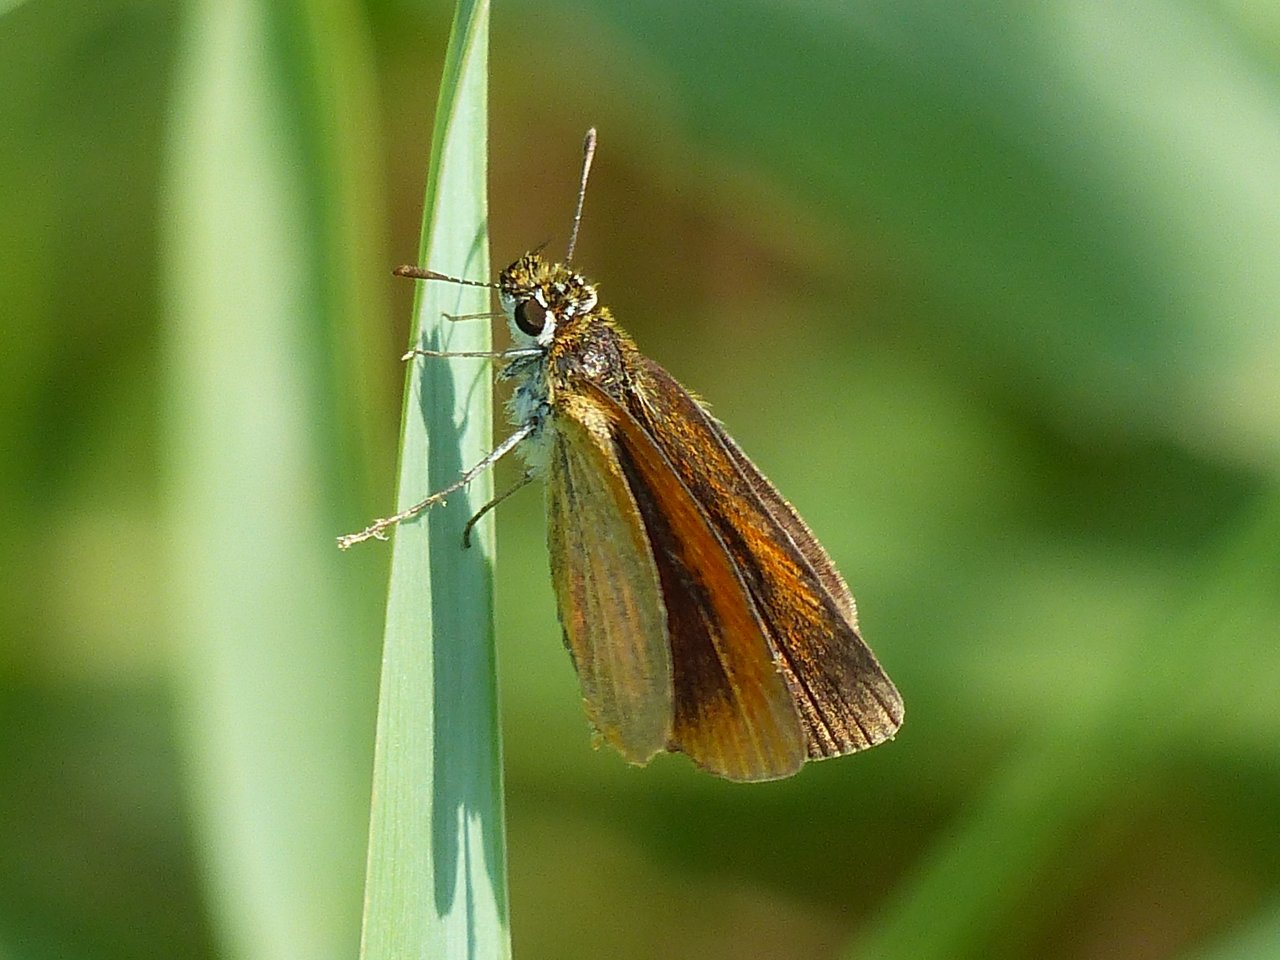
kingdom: Animalia
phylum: Arthropoda
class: Insecta
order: Lepidoptera
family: Hesperiidae
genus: Ancyloxypha
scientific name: Ancyloxypha numitor
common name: Least Skipper
